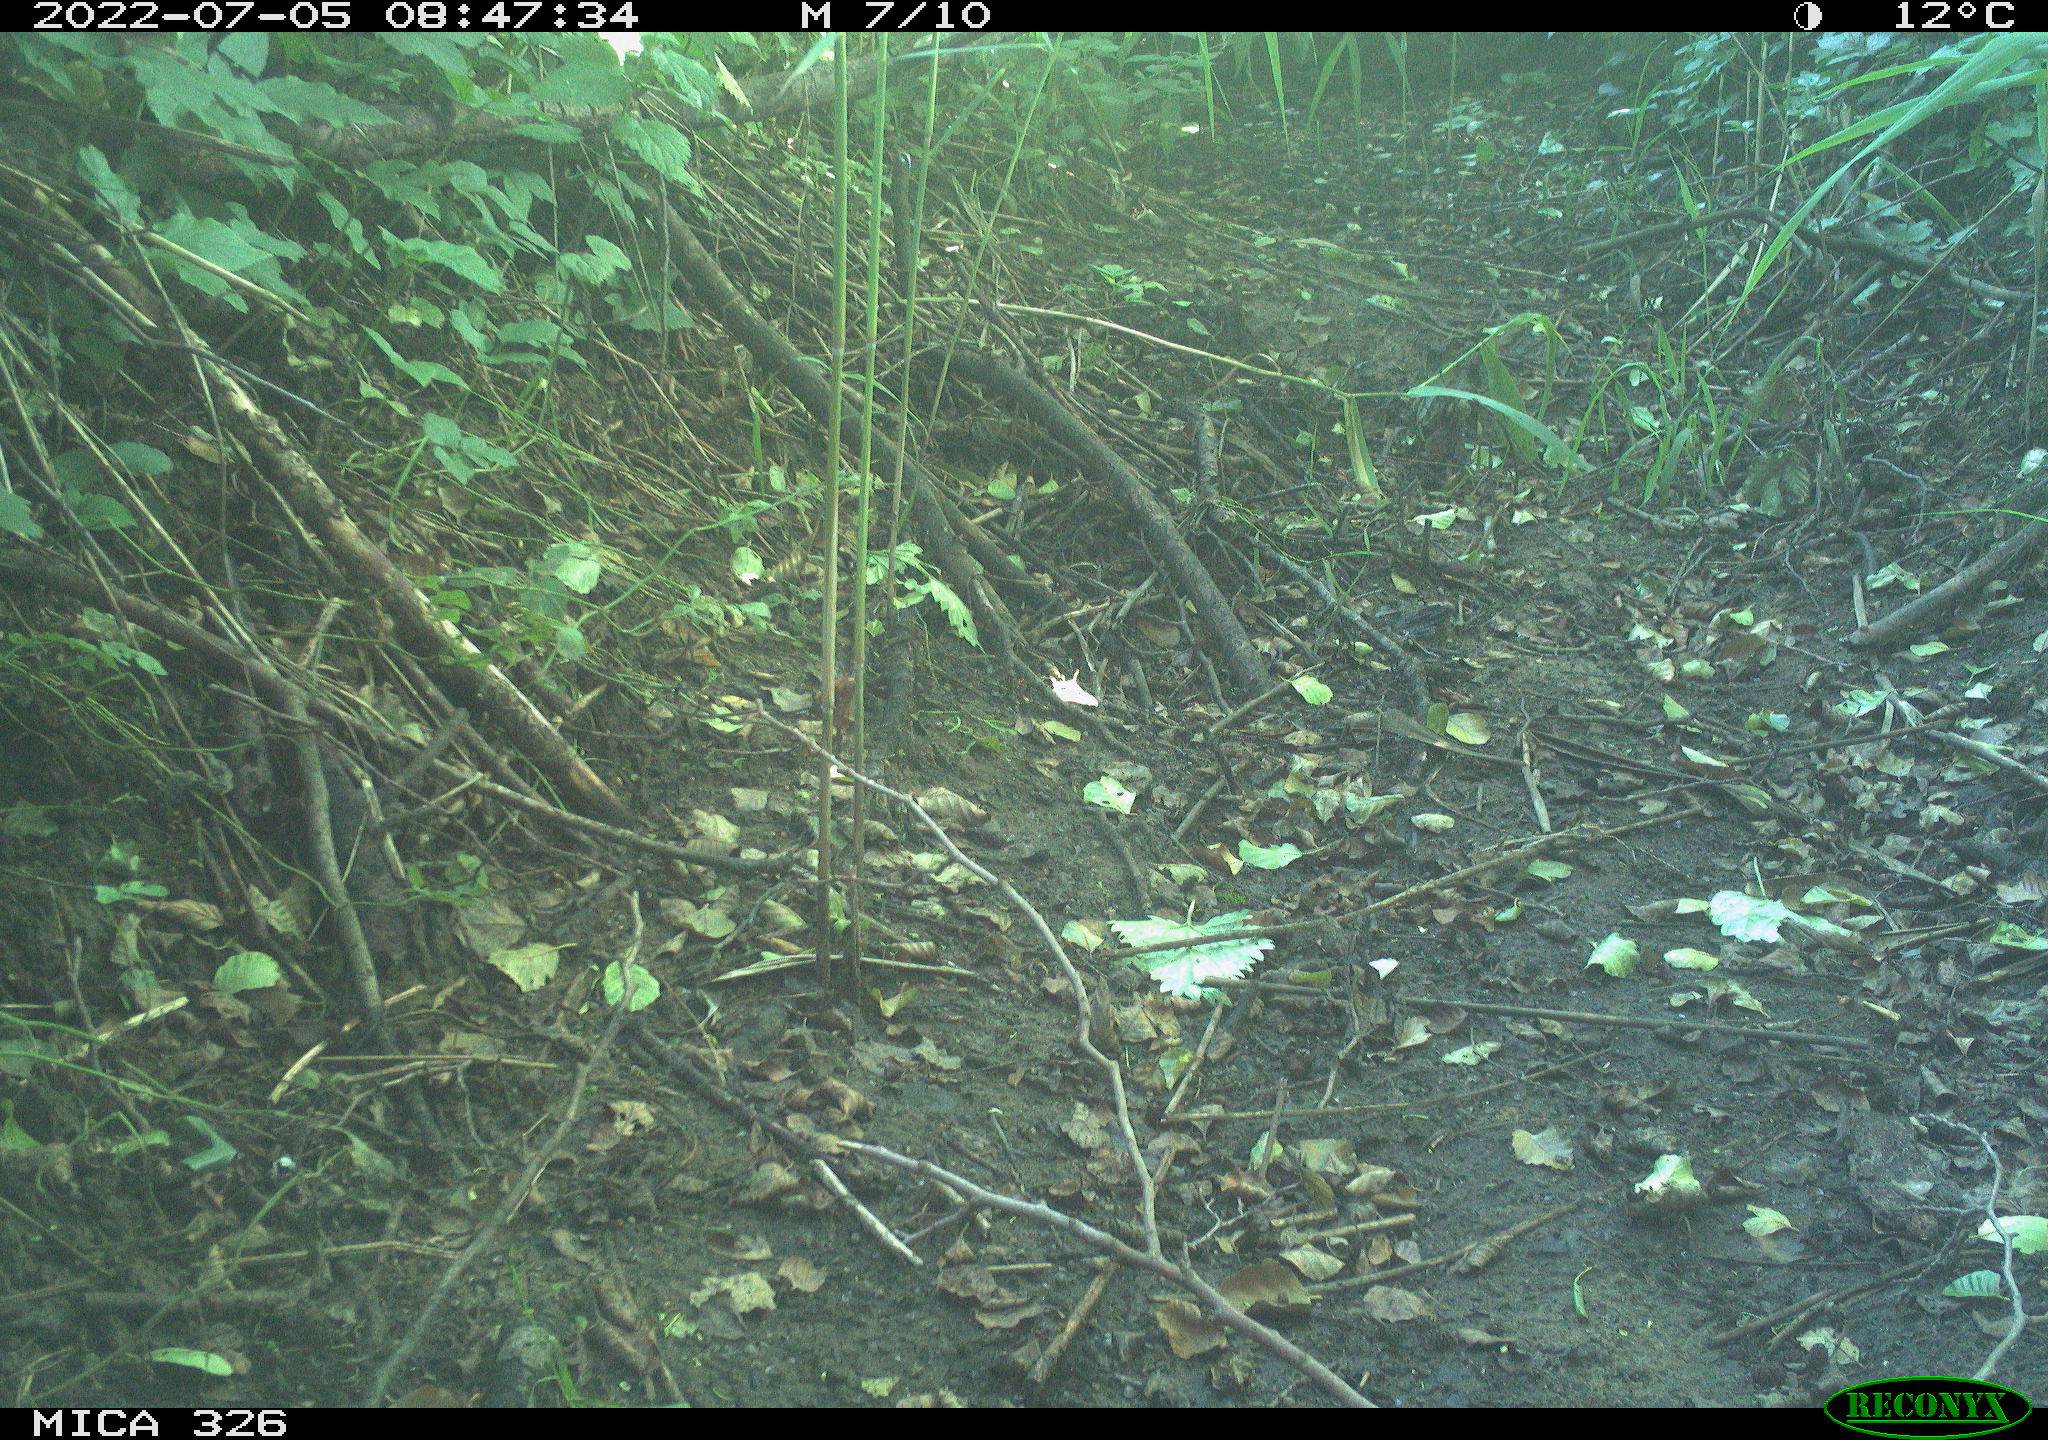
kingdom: Animalia
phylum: Chordata
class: Mammalia
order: Lagomorpha
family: Leporidae
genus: Lepus
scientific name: Lepus europaeus
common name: European hare
